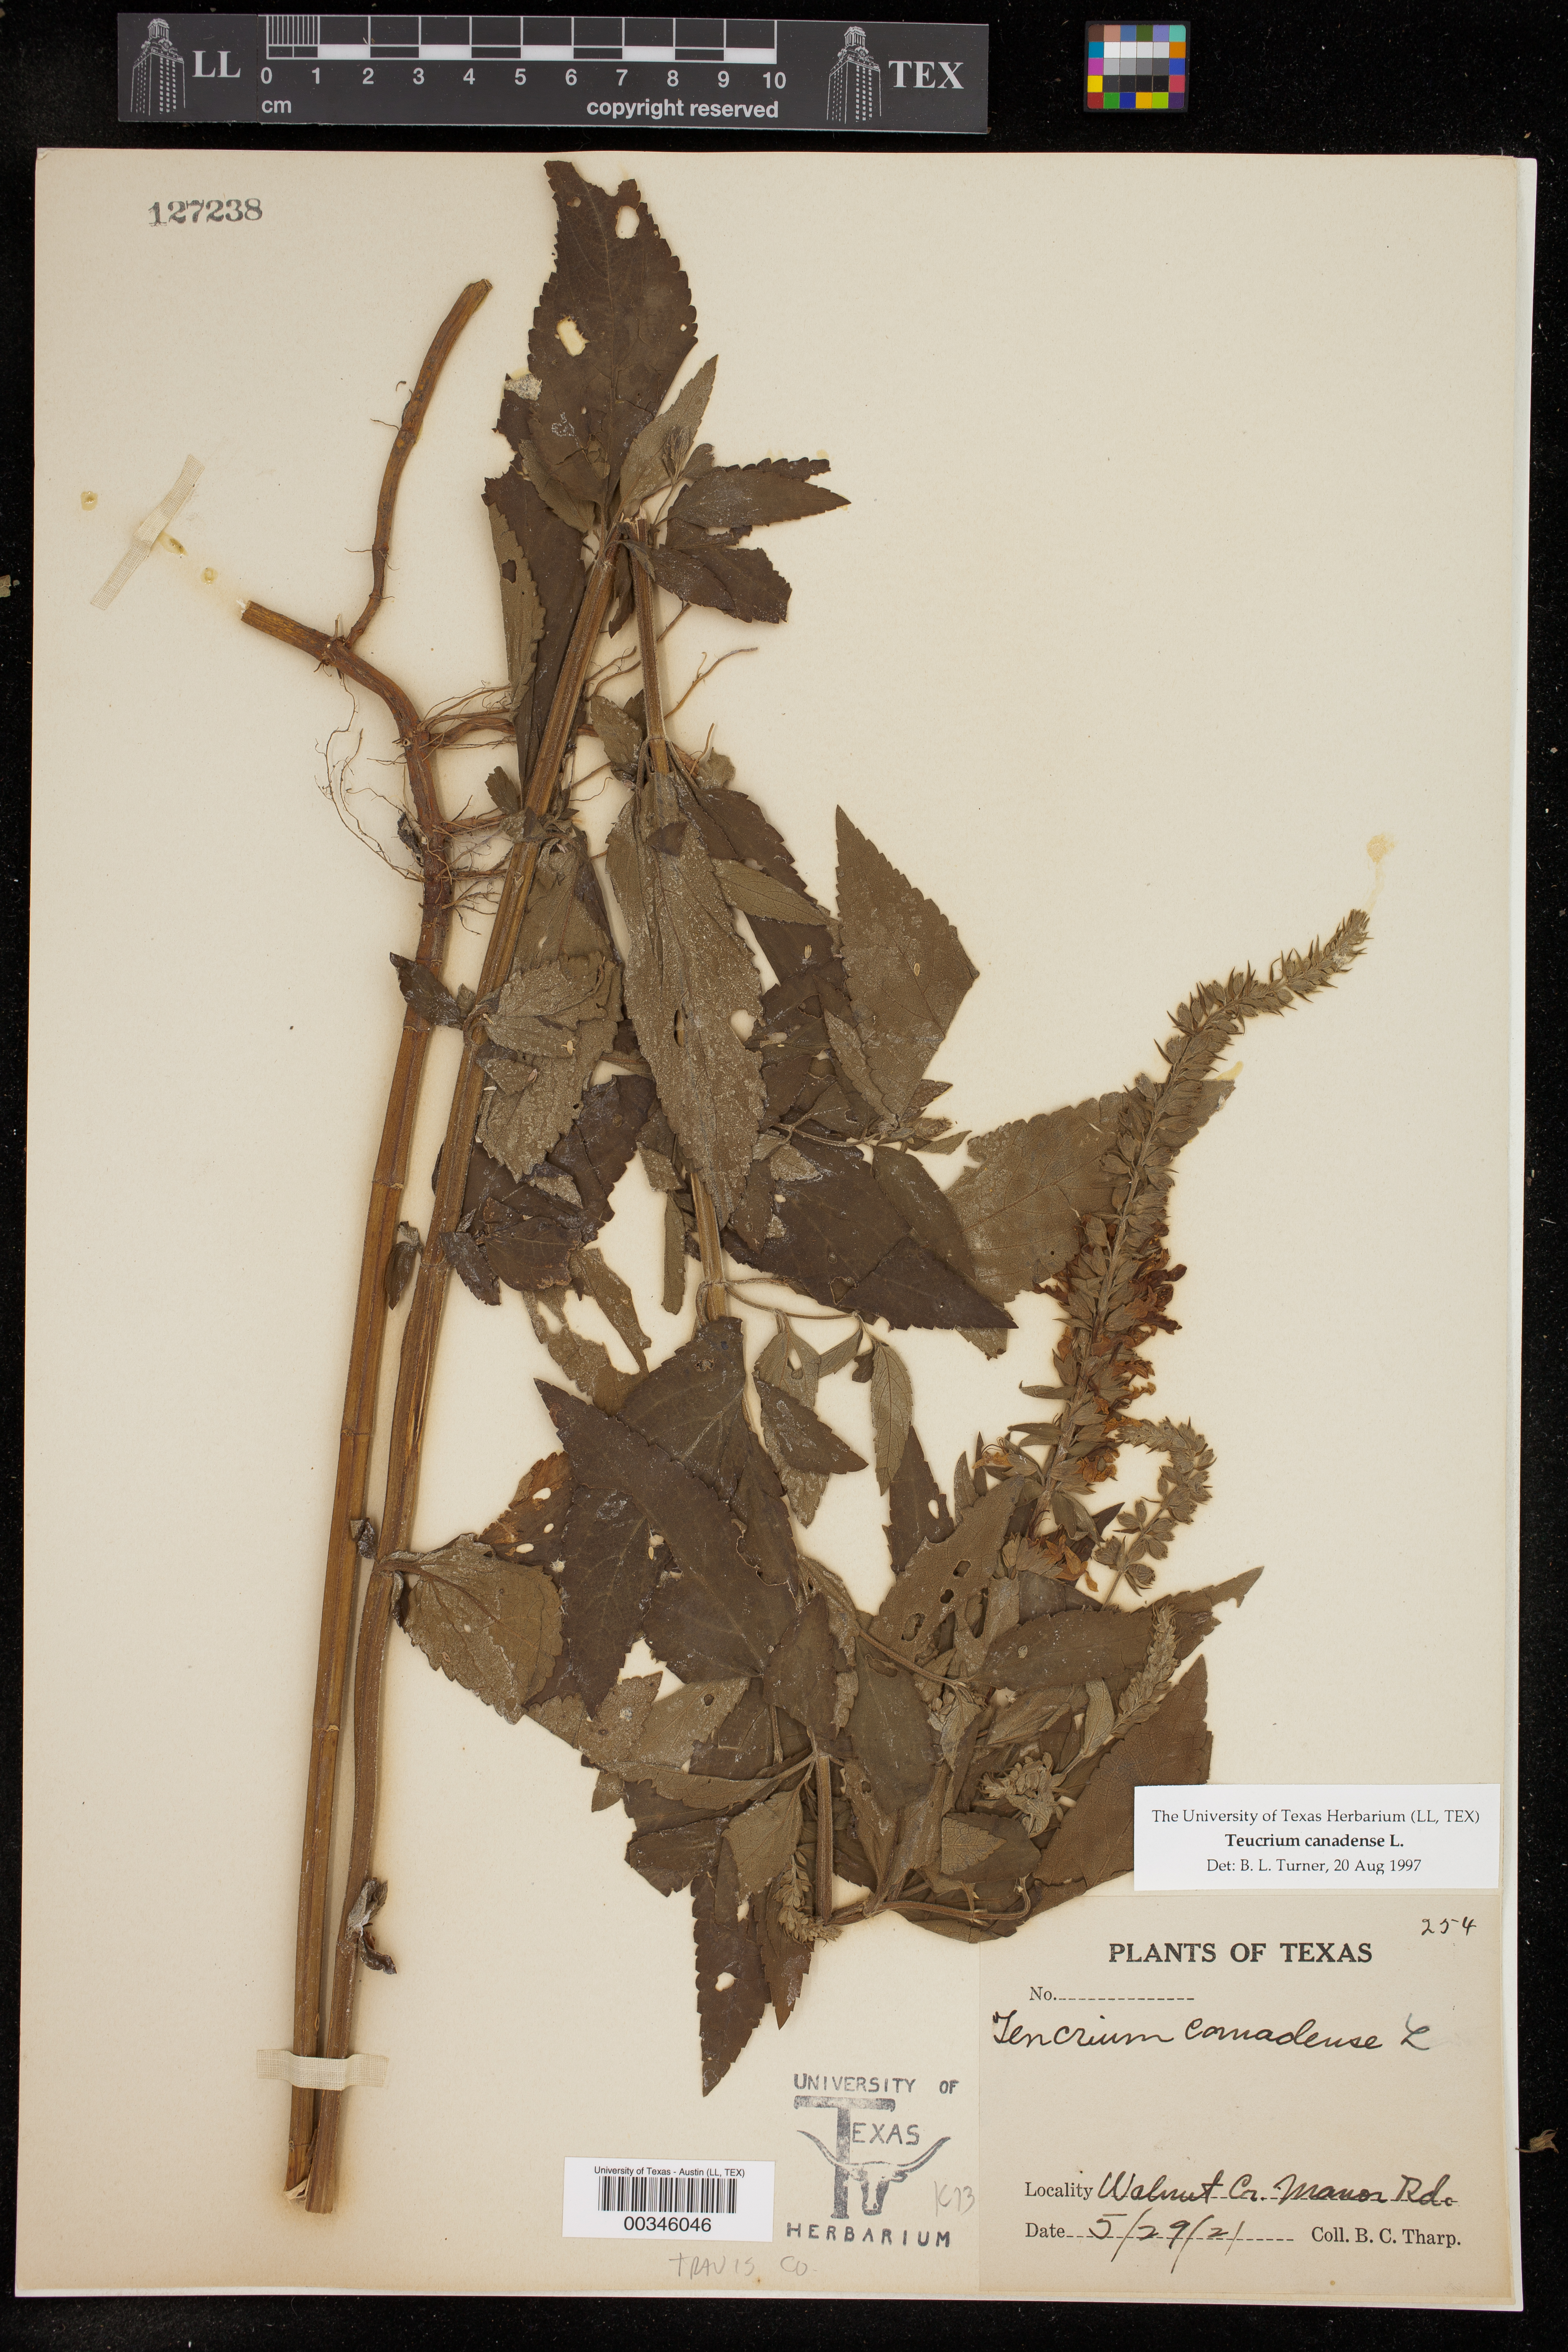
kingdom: Plantae
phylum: Tracheophyta
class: Magnoliopsida
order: Lamiales
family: Lamiaceae
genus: Teucrium
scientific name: Teucrium canadense
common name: American germander
